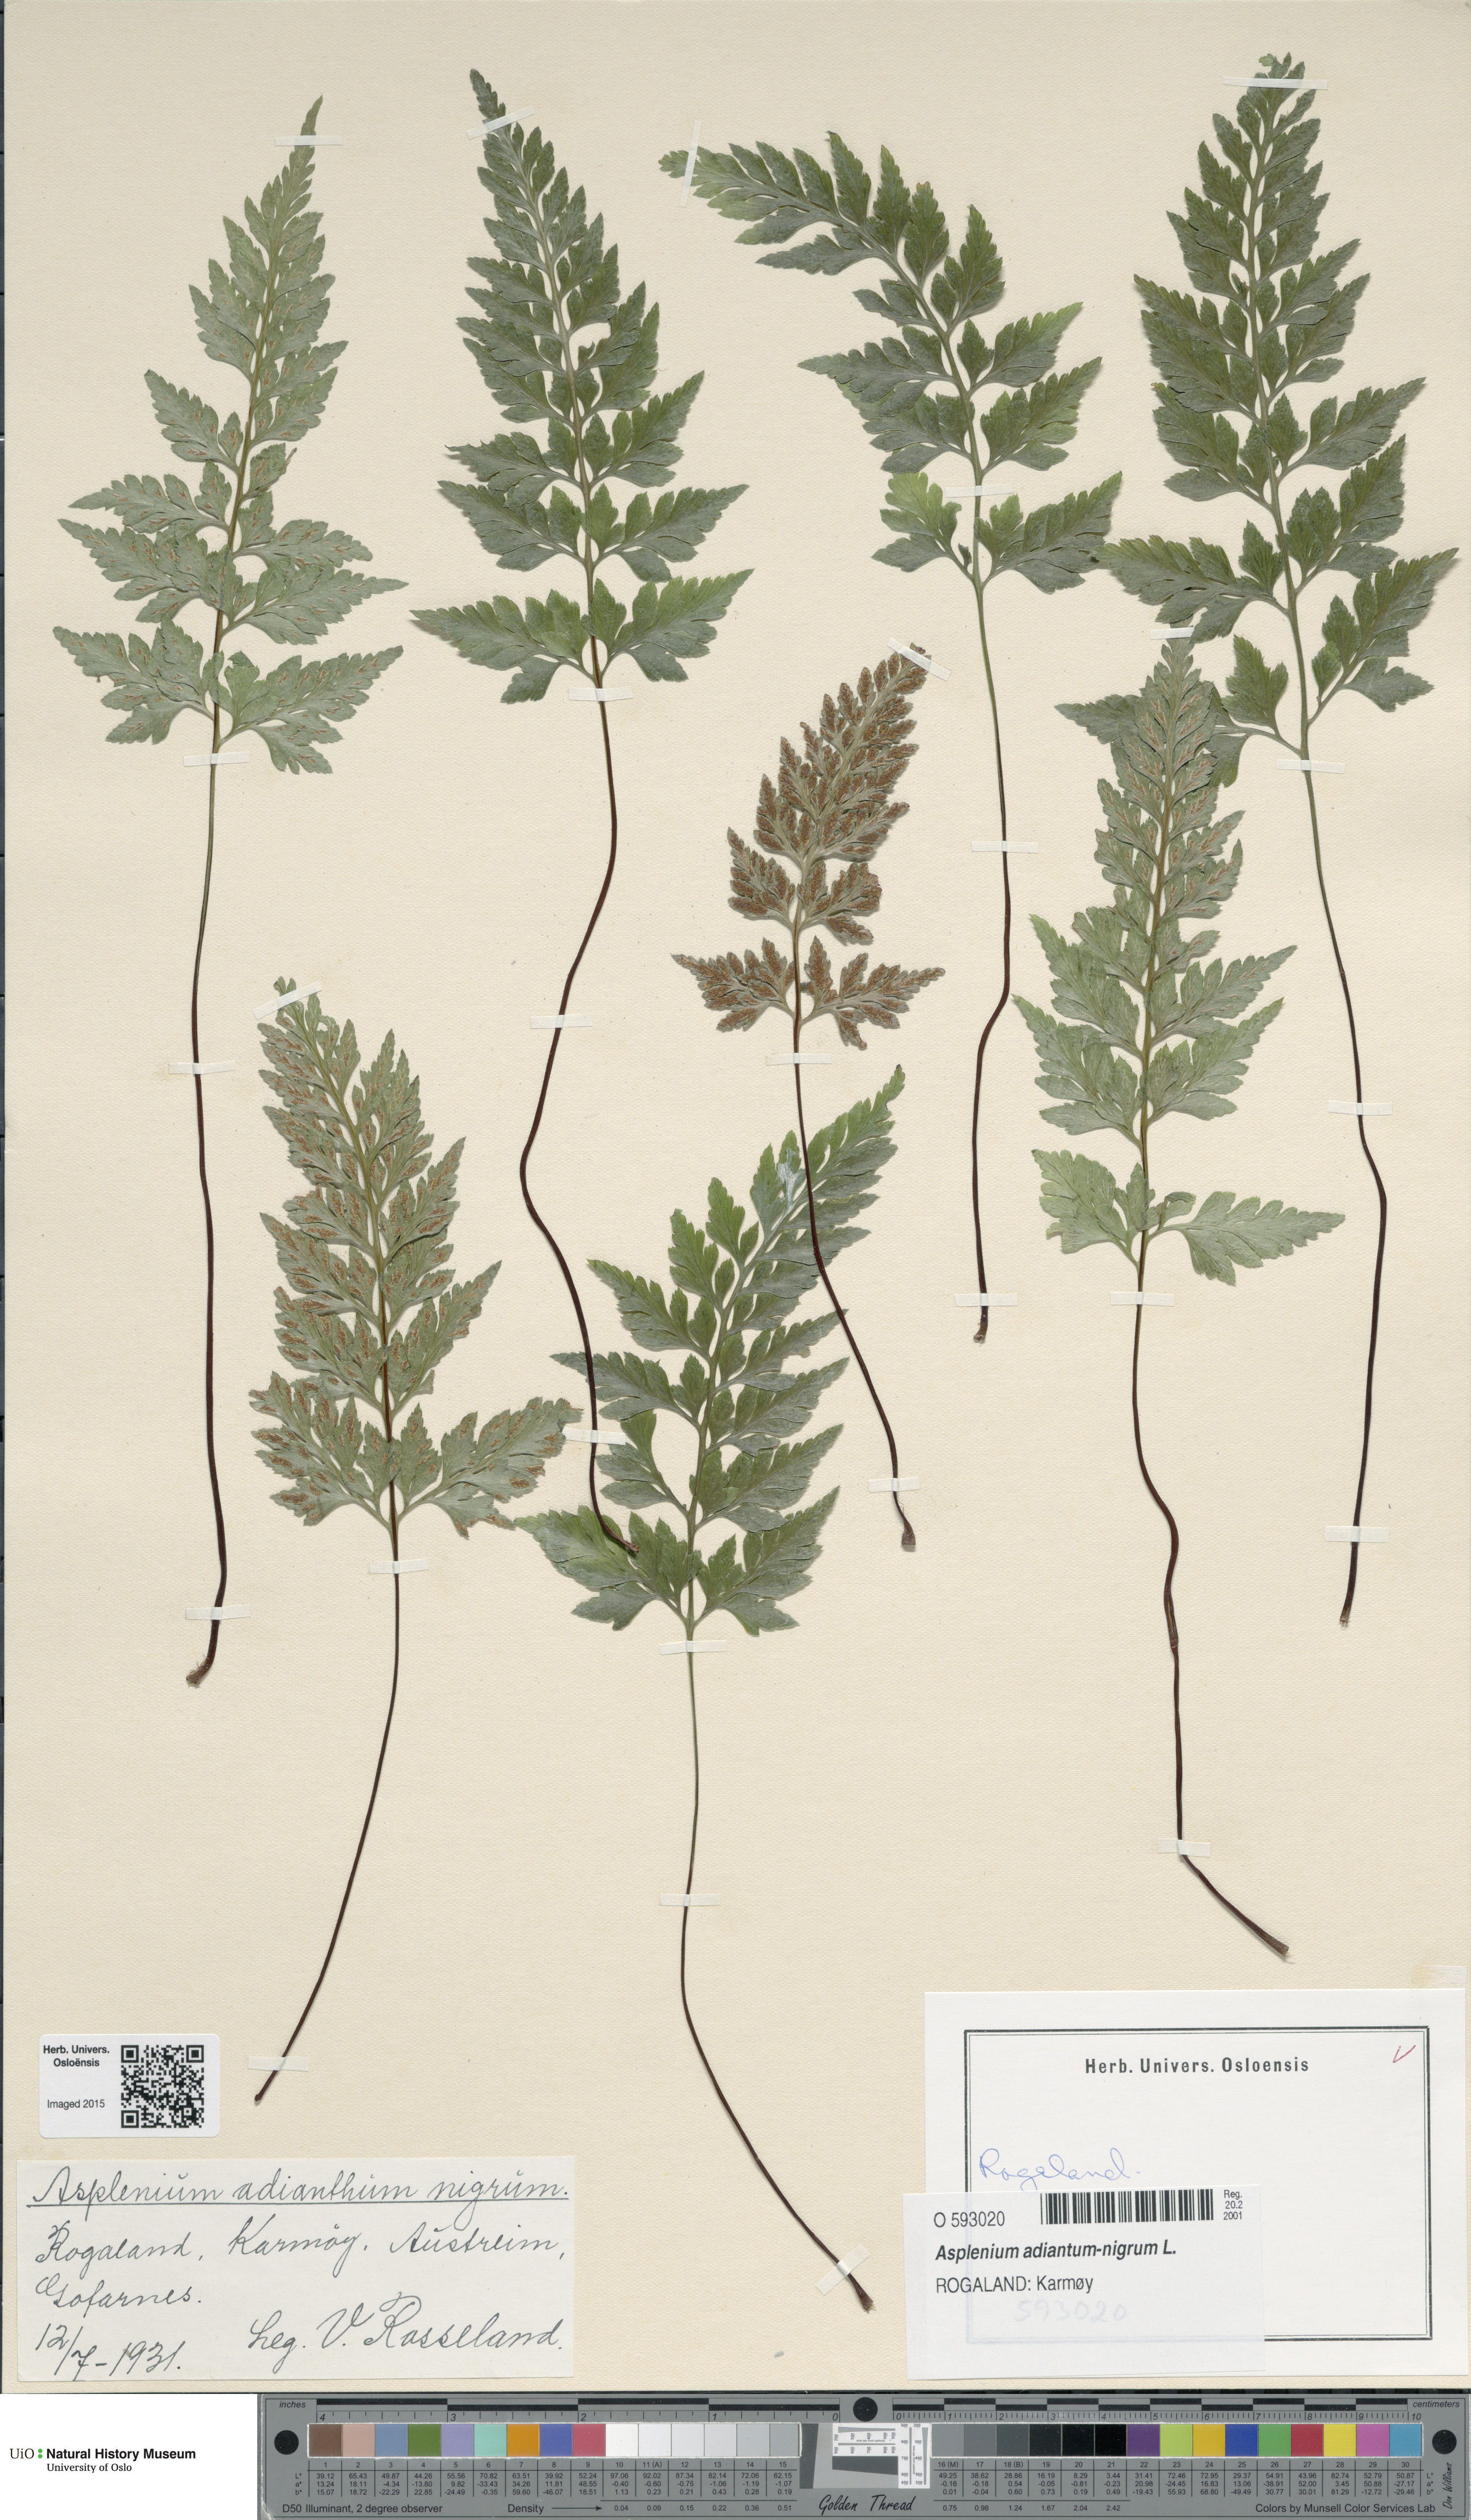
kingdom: Plantae
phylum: Tracheophyta
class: Polypodiopsida
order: Polypodiales
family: Aspleniaceae
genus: Asplenium
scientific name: Asplenium adiantum-nigrum
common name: Black spleenwort
